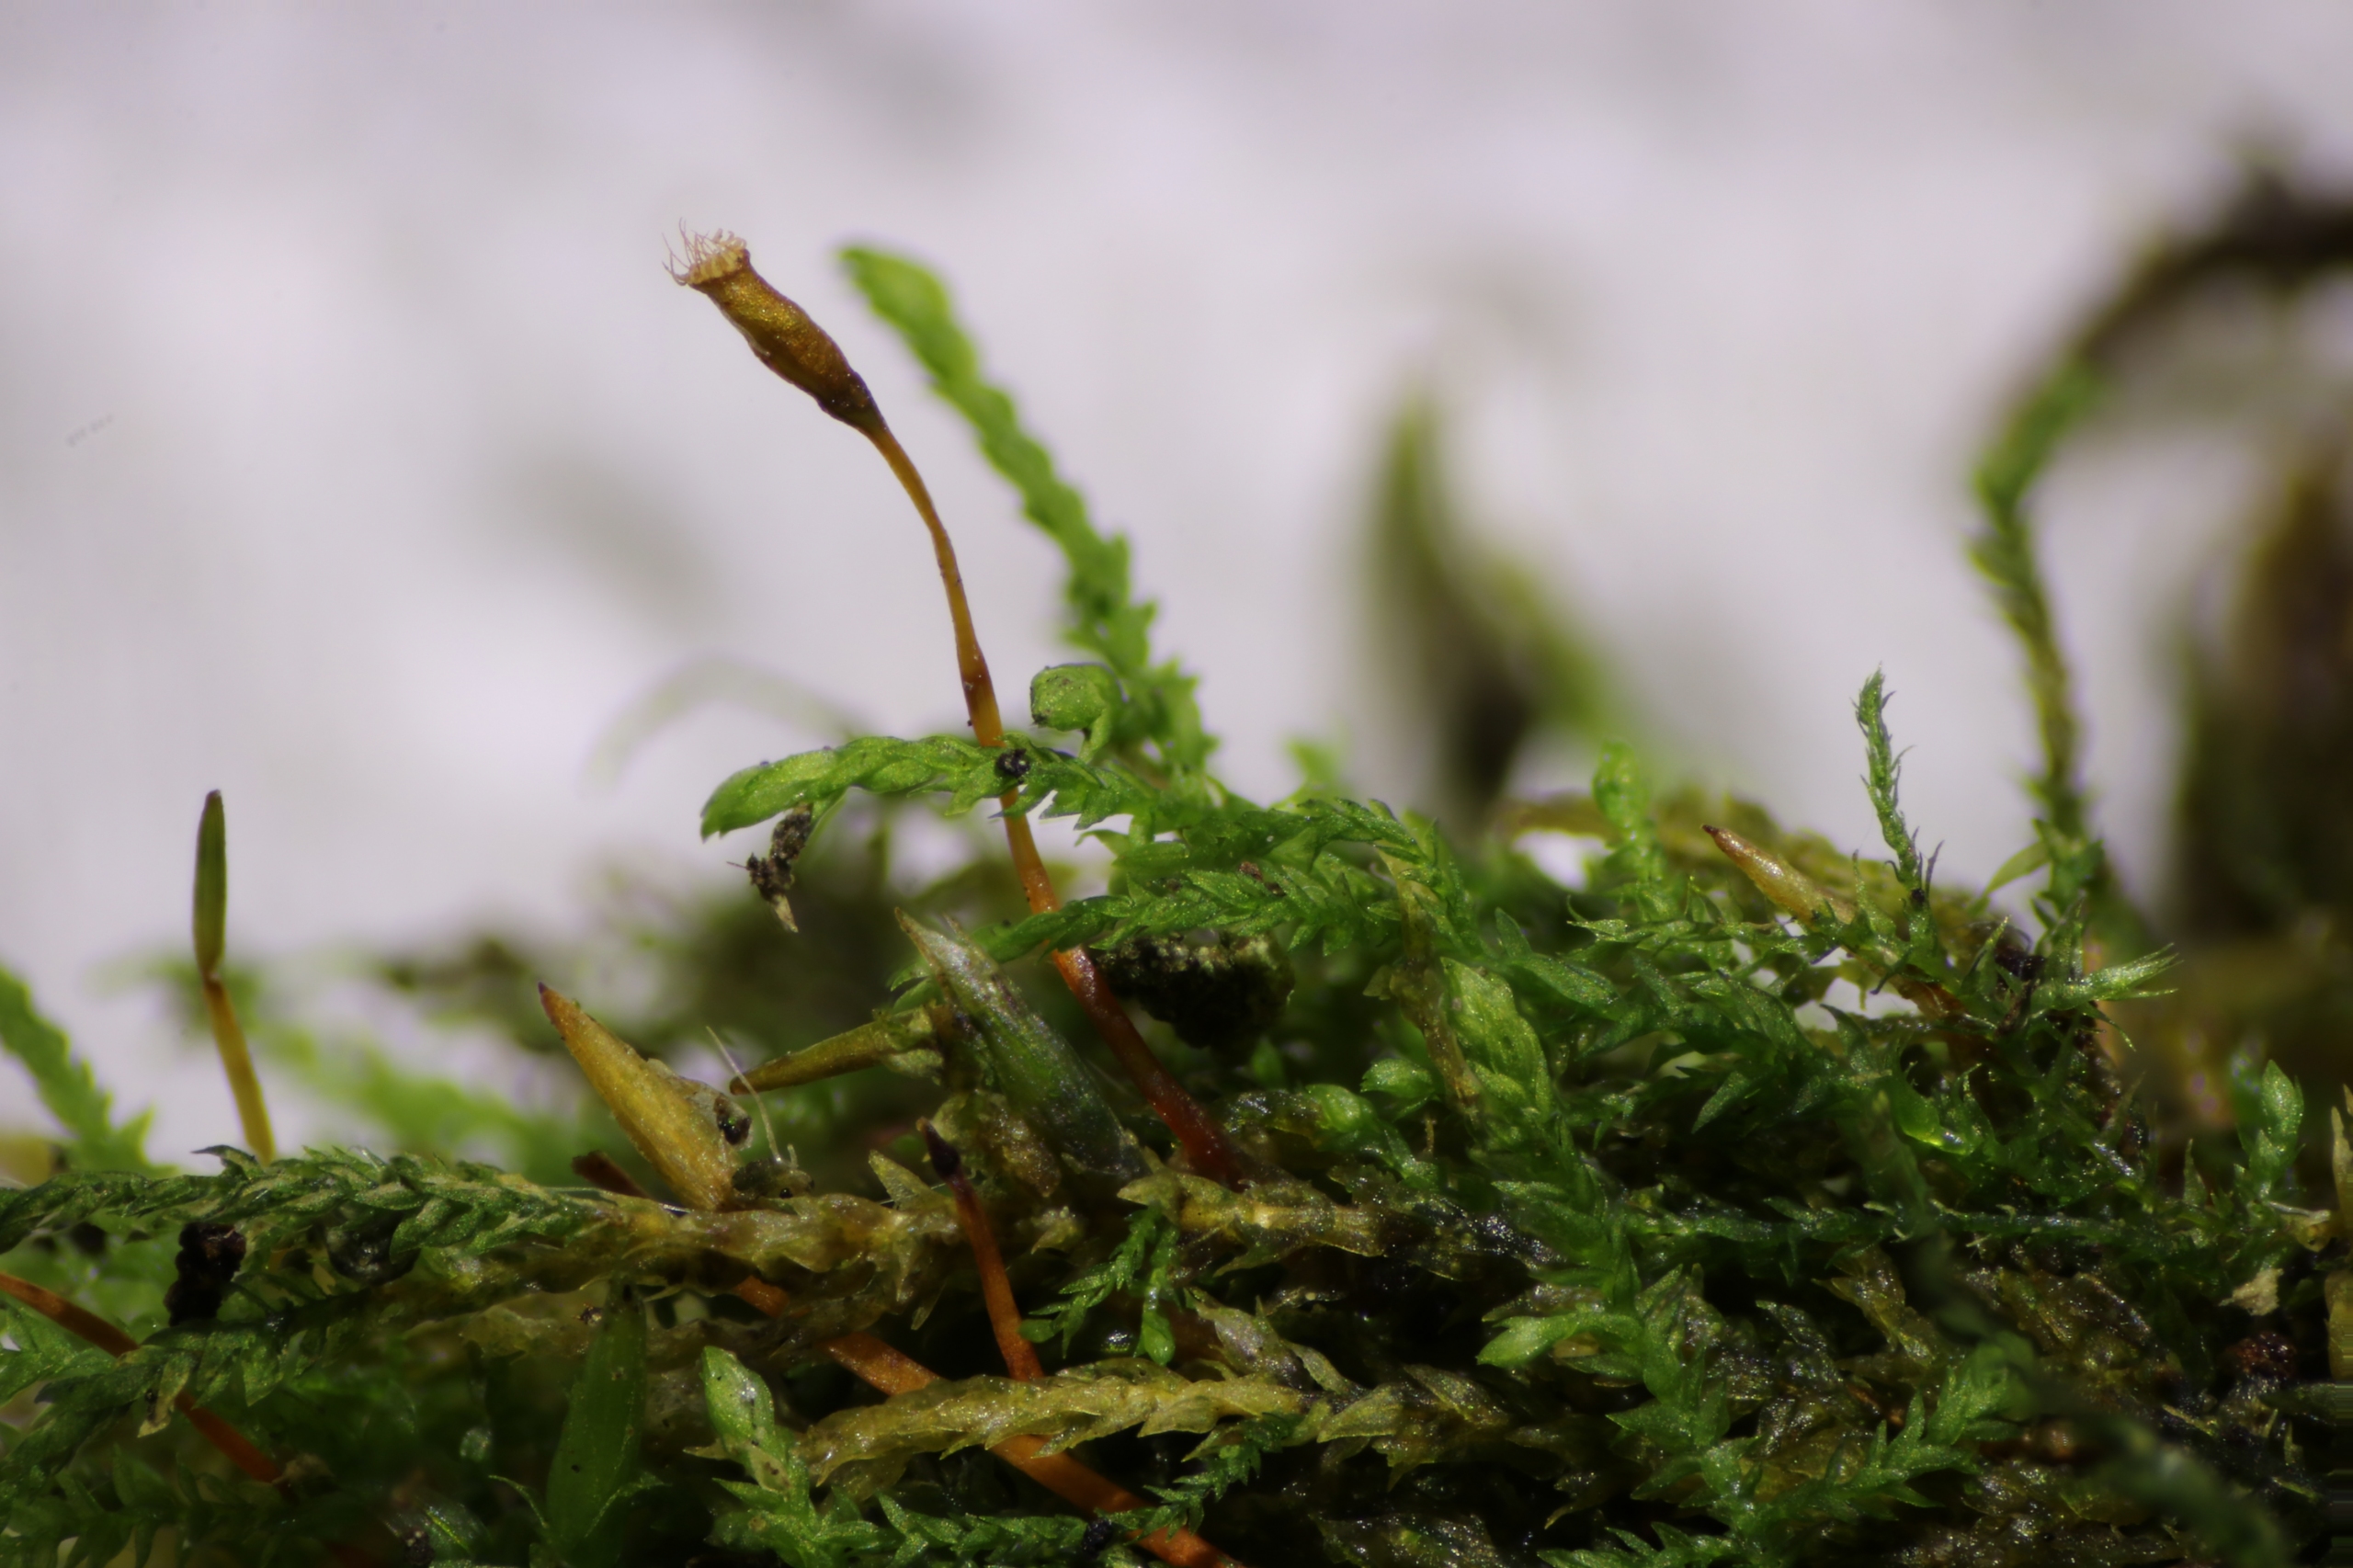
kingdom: Plantae
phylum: Bryophyta
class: Bryopsida
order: Hypnales
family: Leskeaceae
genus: Leskea
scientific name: Leskea polycarpa
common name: Mat lærkemos
